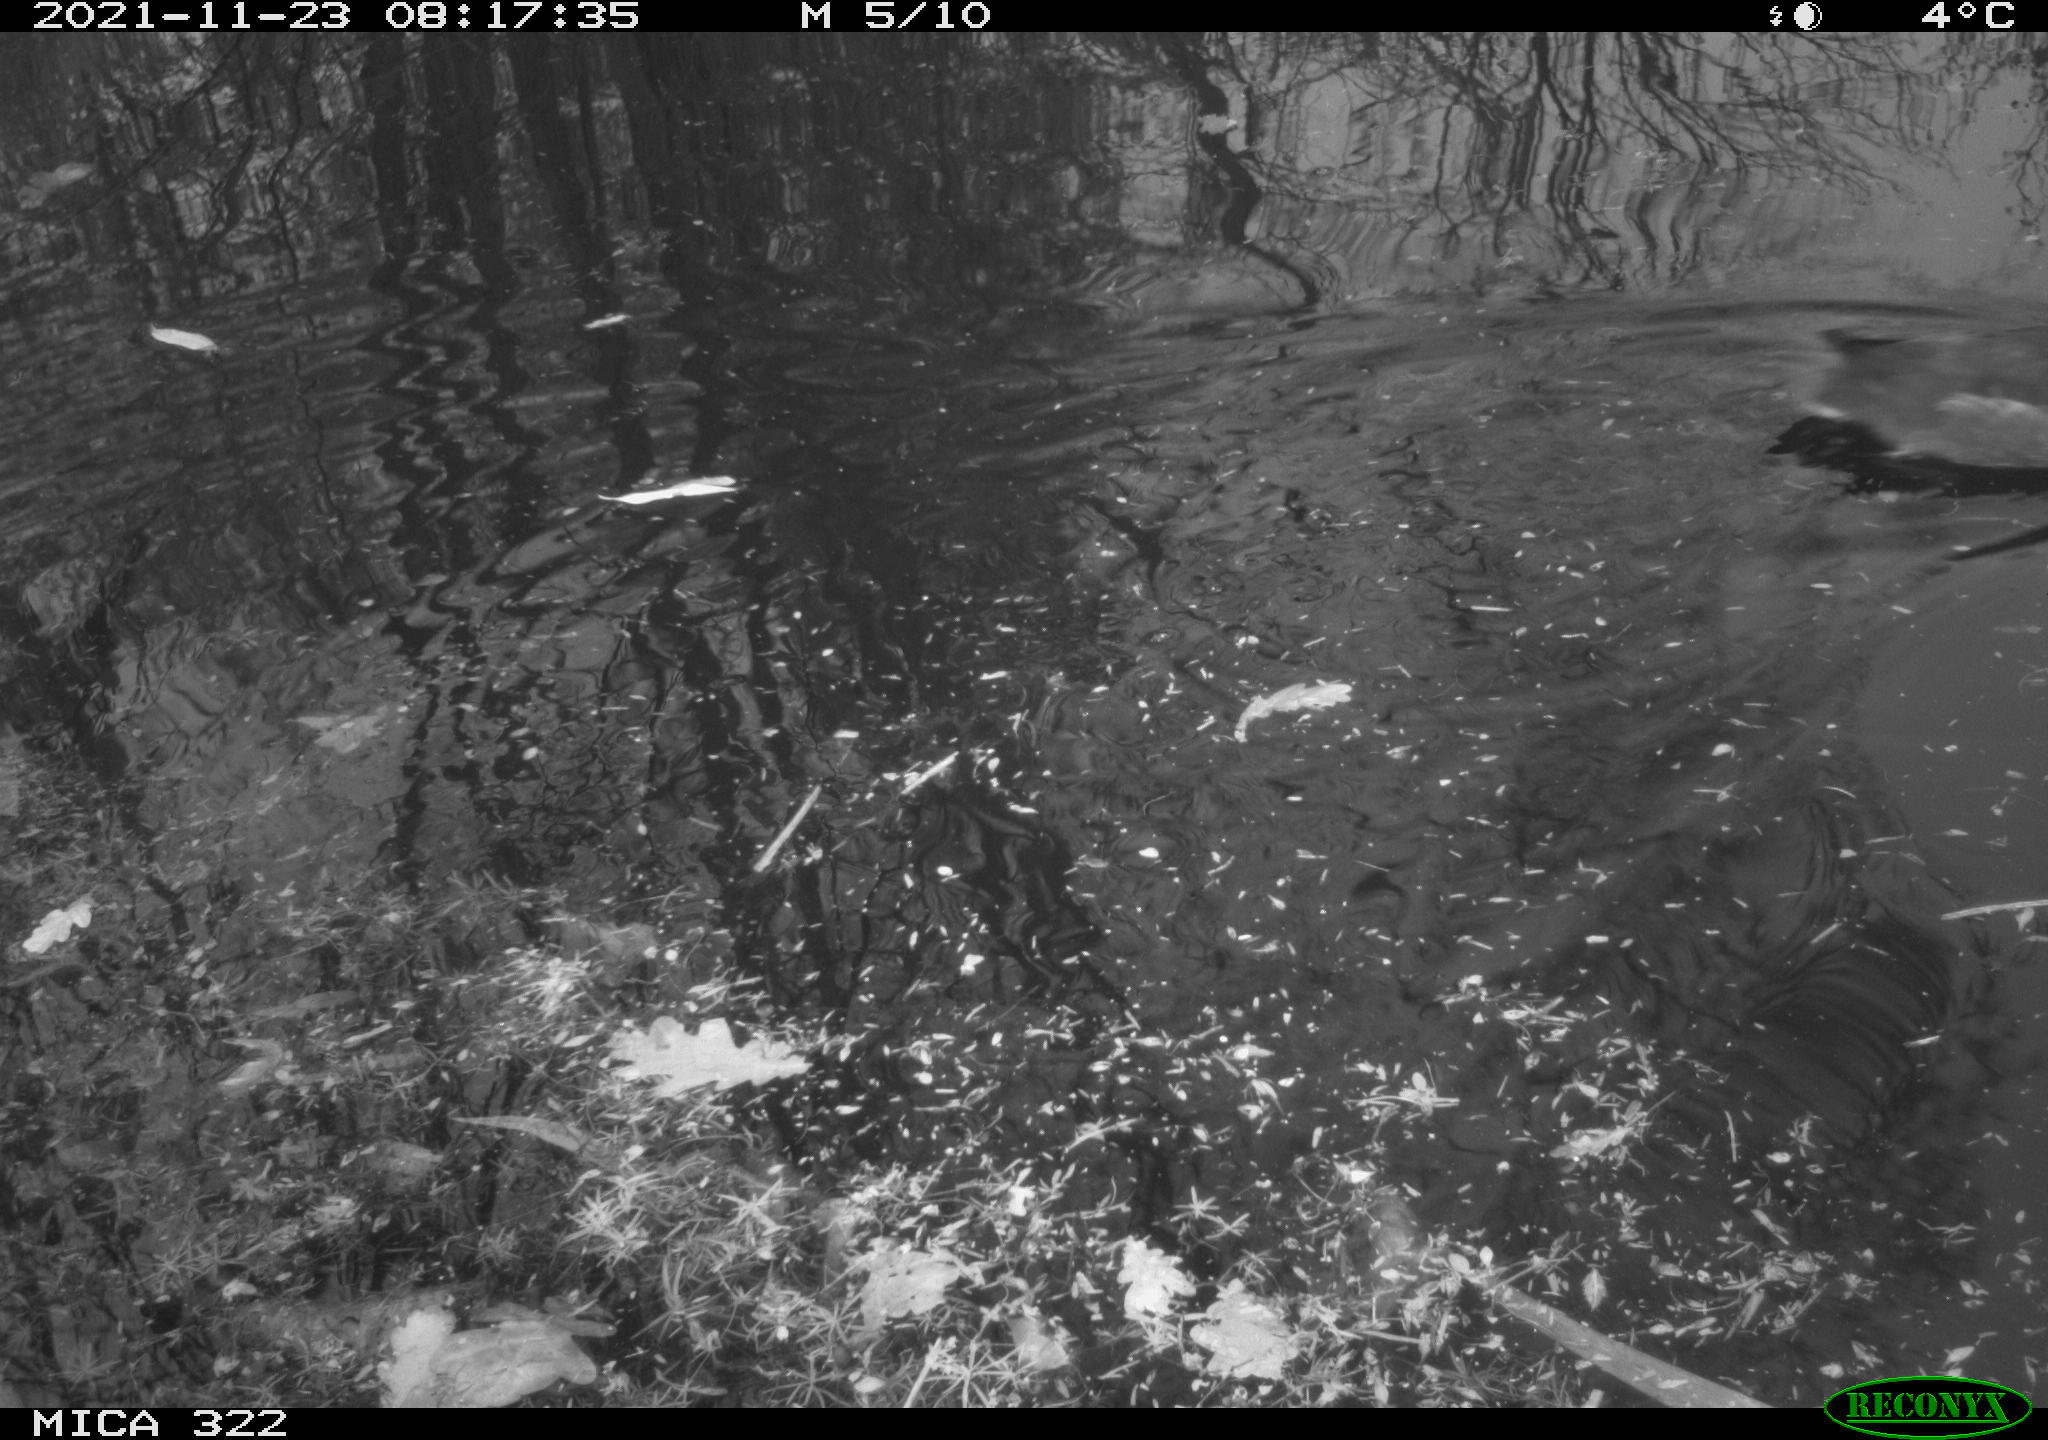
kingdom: Animalia
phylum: Chordata
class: Aves
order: Gruiformes
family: Rallidae
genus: Gallinula
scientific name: Gallinula chloropus
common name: Common moorhen
